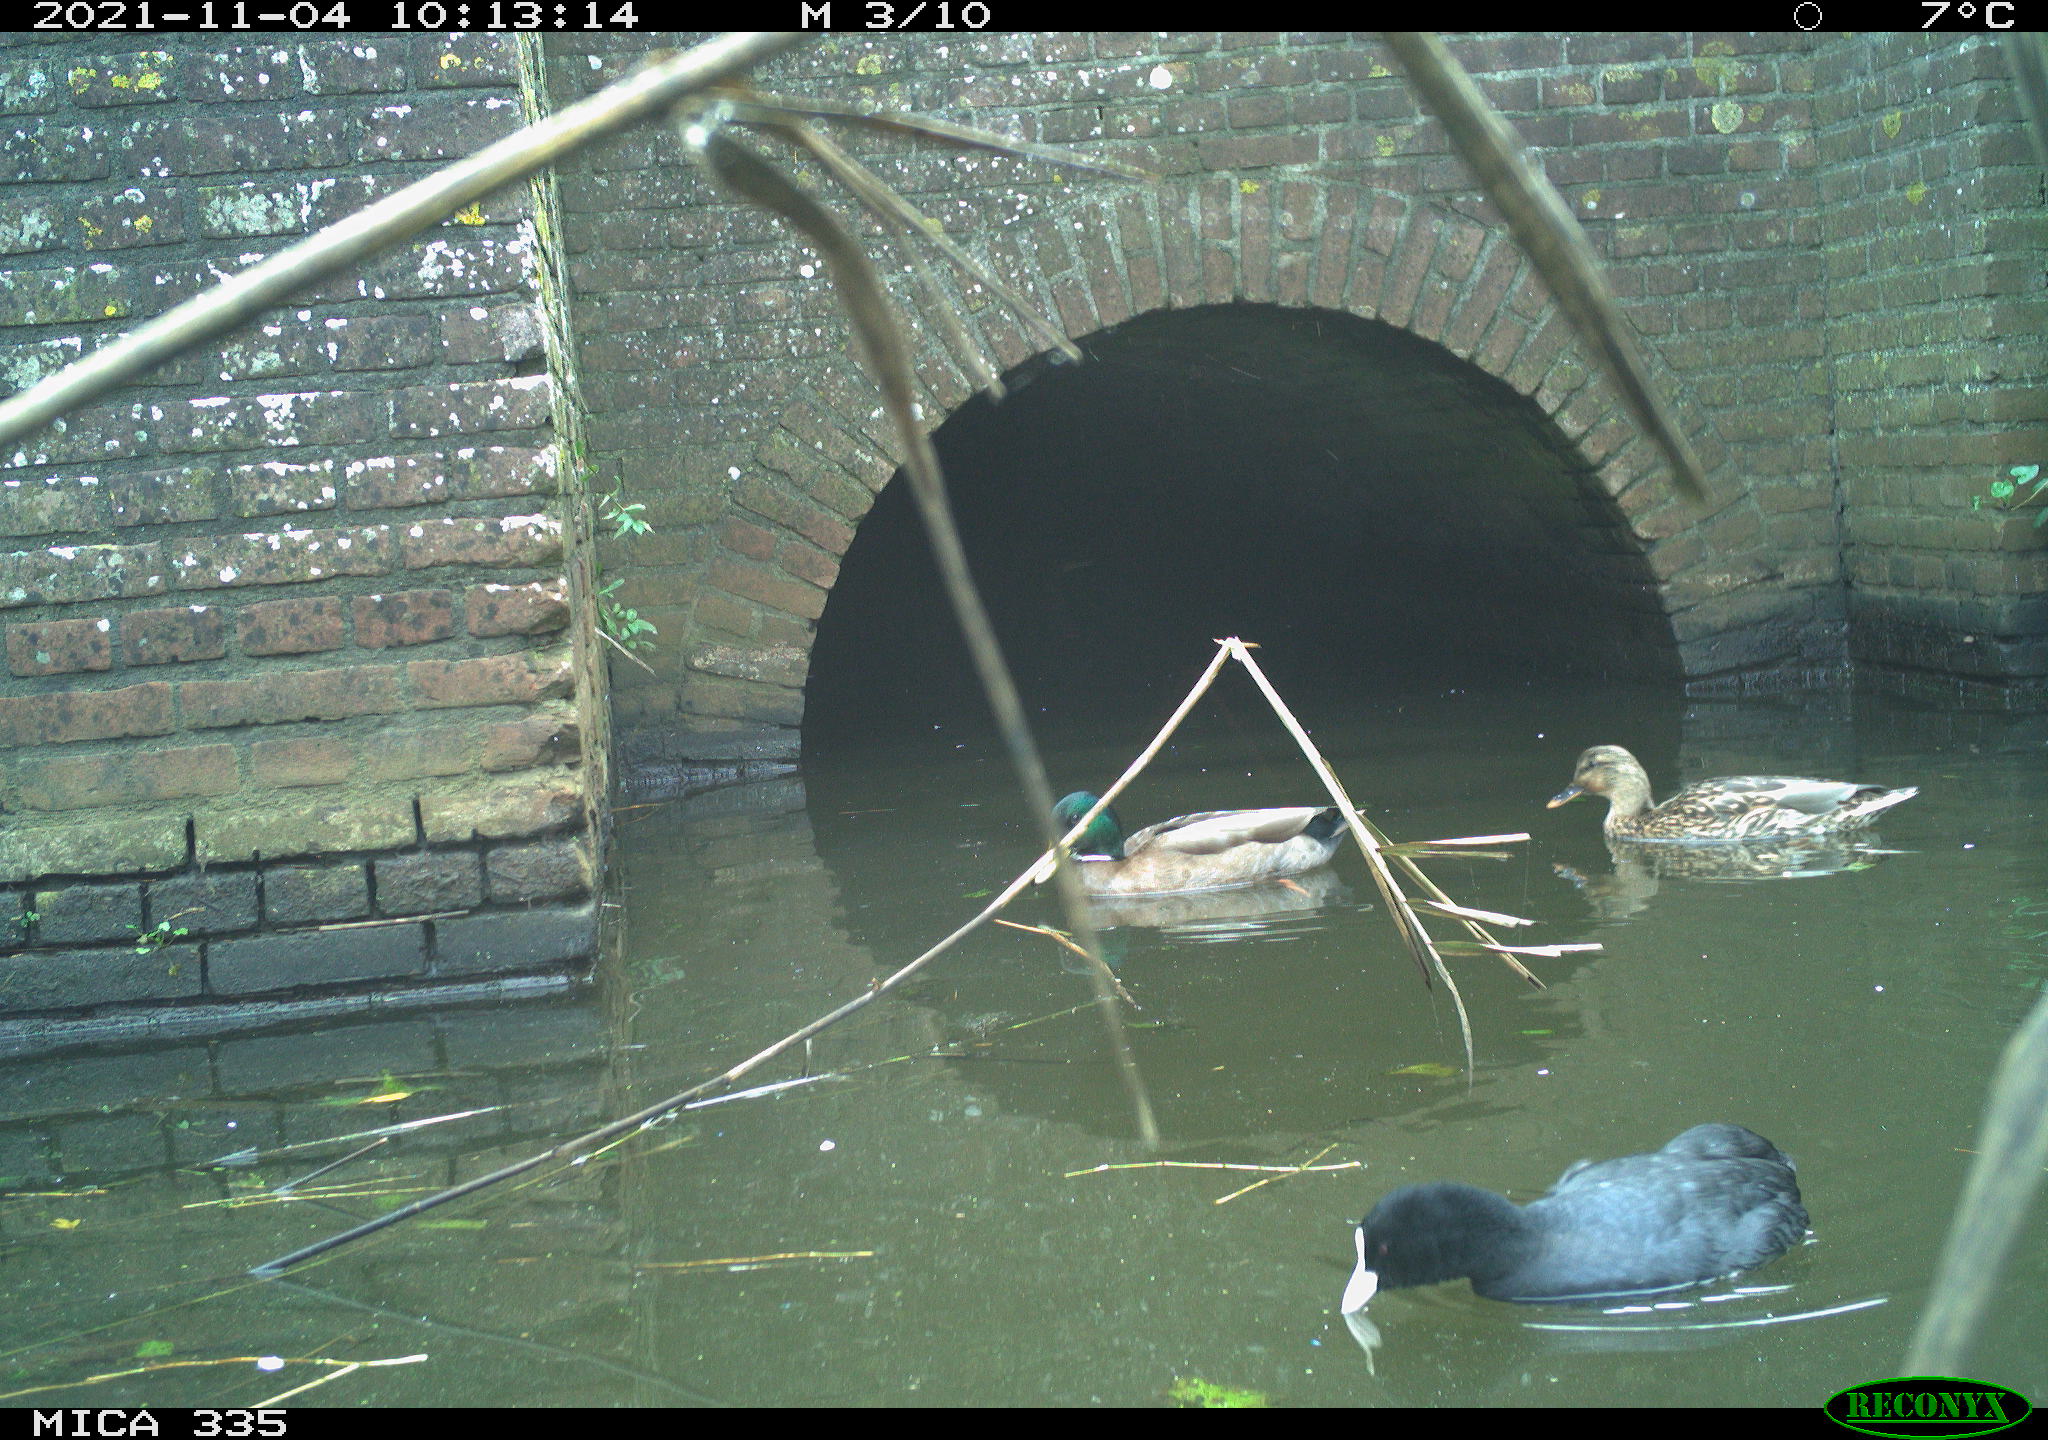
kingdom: Animalia
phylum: Chordata
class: Aves
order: Anseriformes
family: Anatidae
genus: Anas
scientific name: Anas platyrhynchos
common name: Mallard
